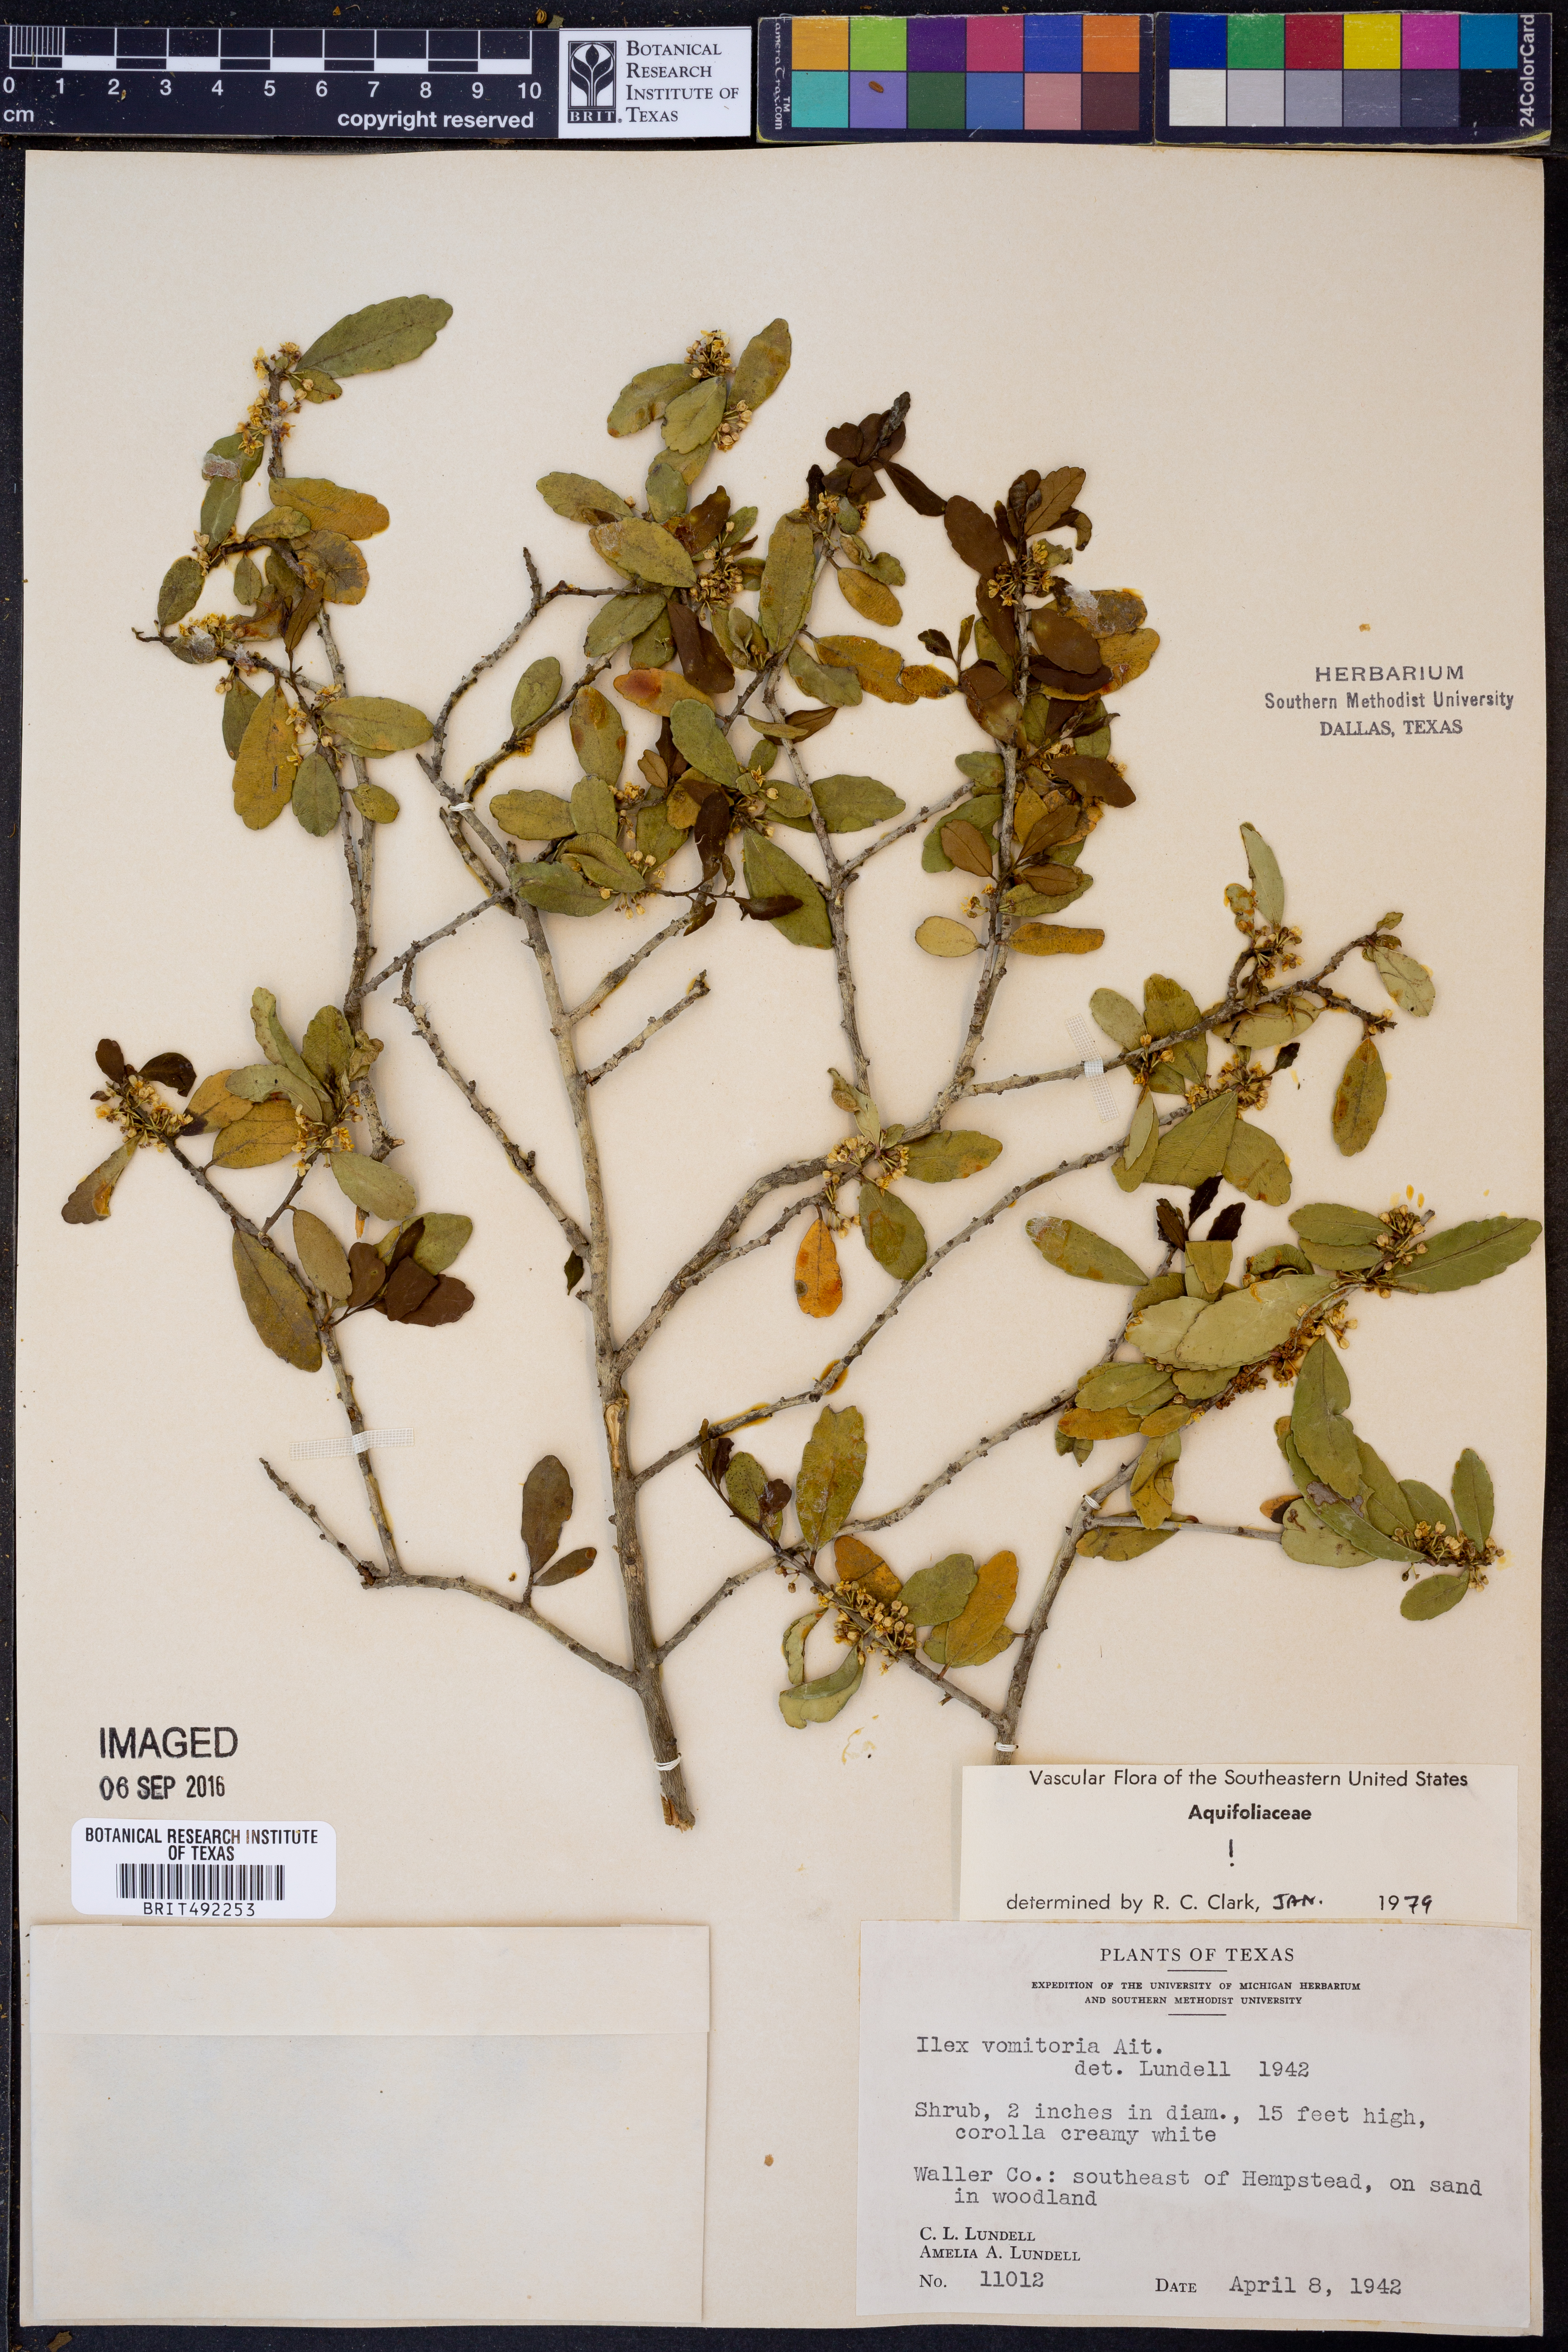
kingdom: Plantae
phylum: Tracheophyta
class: Magnoliopsida
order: Aquifoliales
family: Aquifoliaceae
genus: Ilex
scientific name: Ilex vomitoria
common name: Yaupon holly
